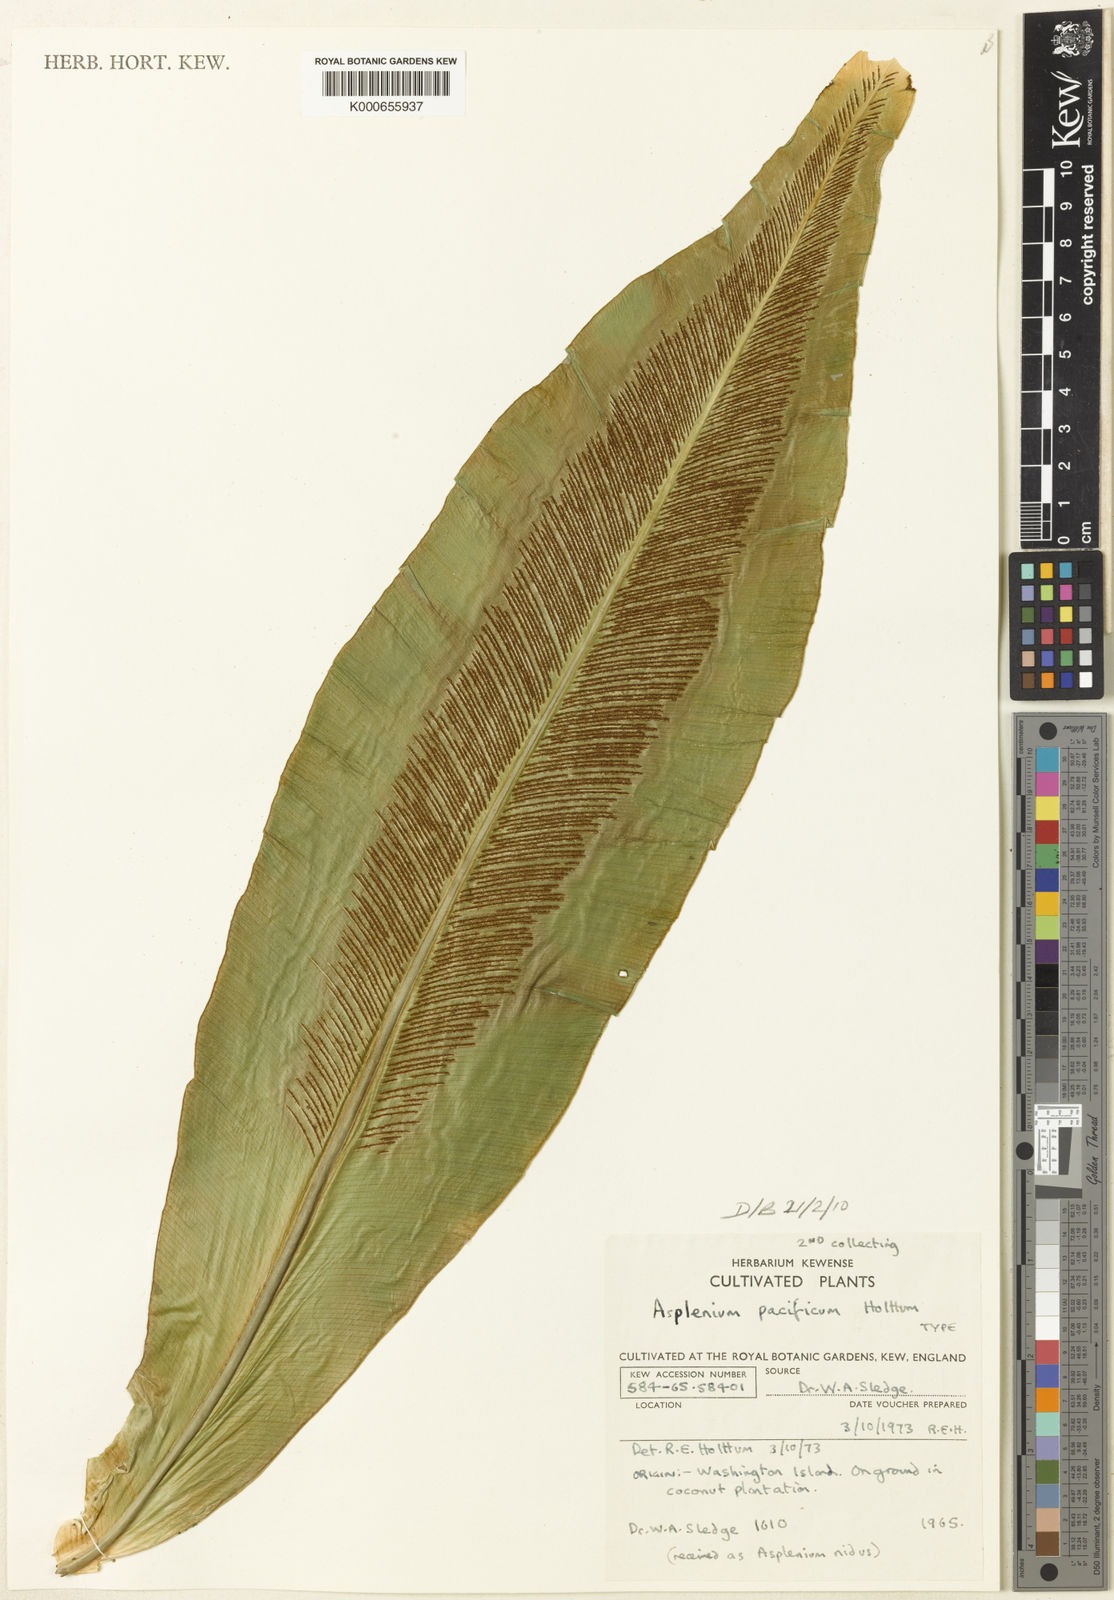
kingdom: Plantae
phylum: Tracheophyta
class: Polypodiopsida
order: Polypodiales
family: Aspleniaceae
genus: Asplenium
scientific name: Asplenium pacificum
